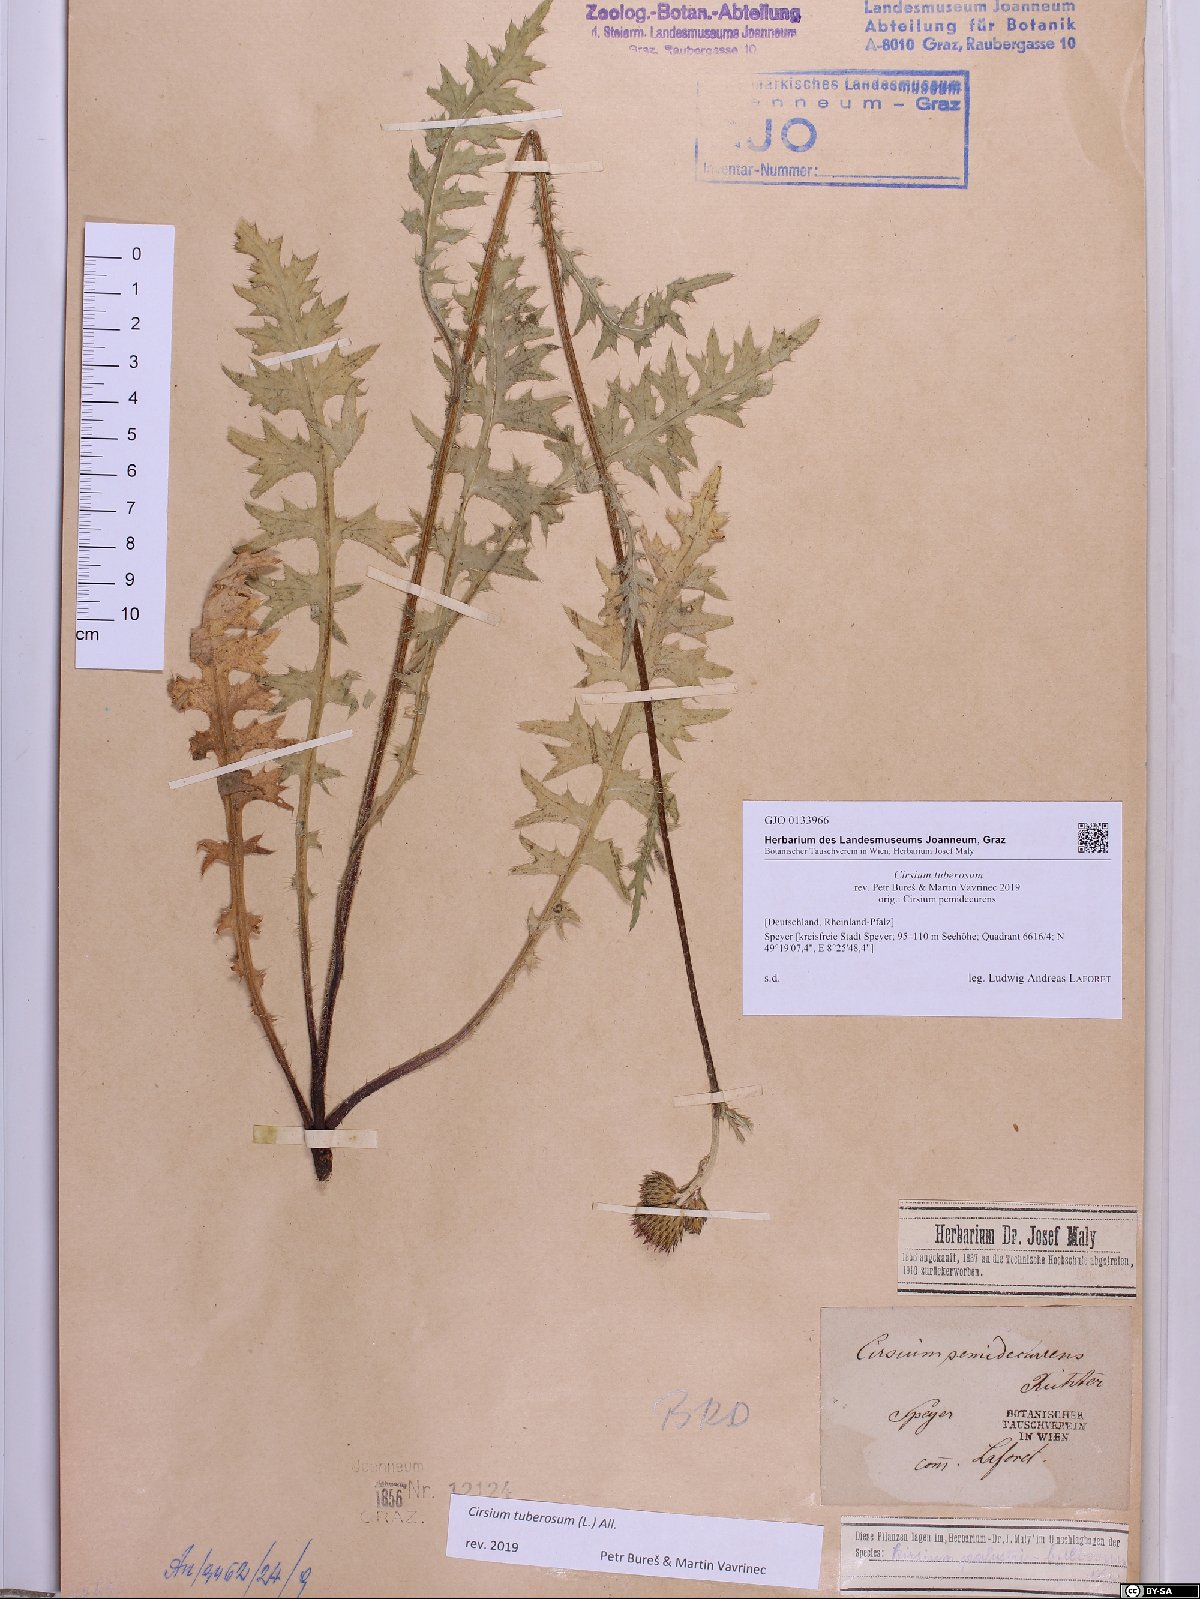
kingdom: Plantae
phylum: Tracheophyta
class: Magnoliopsida
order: Asterales
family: Asteraceae
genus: Cirsium
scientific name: Cirsium tuberosum
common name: Tuberous thistle
